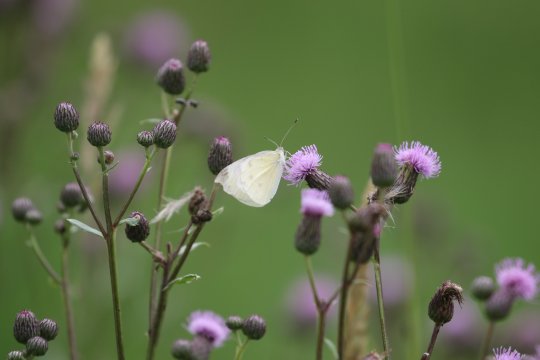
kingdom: Animalia
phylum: Arthropoda
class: Insecta
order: Lepidoptera
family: Pieridae
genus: Pieris
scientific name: Pieris rapae
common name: Cabbage White
